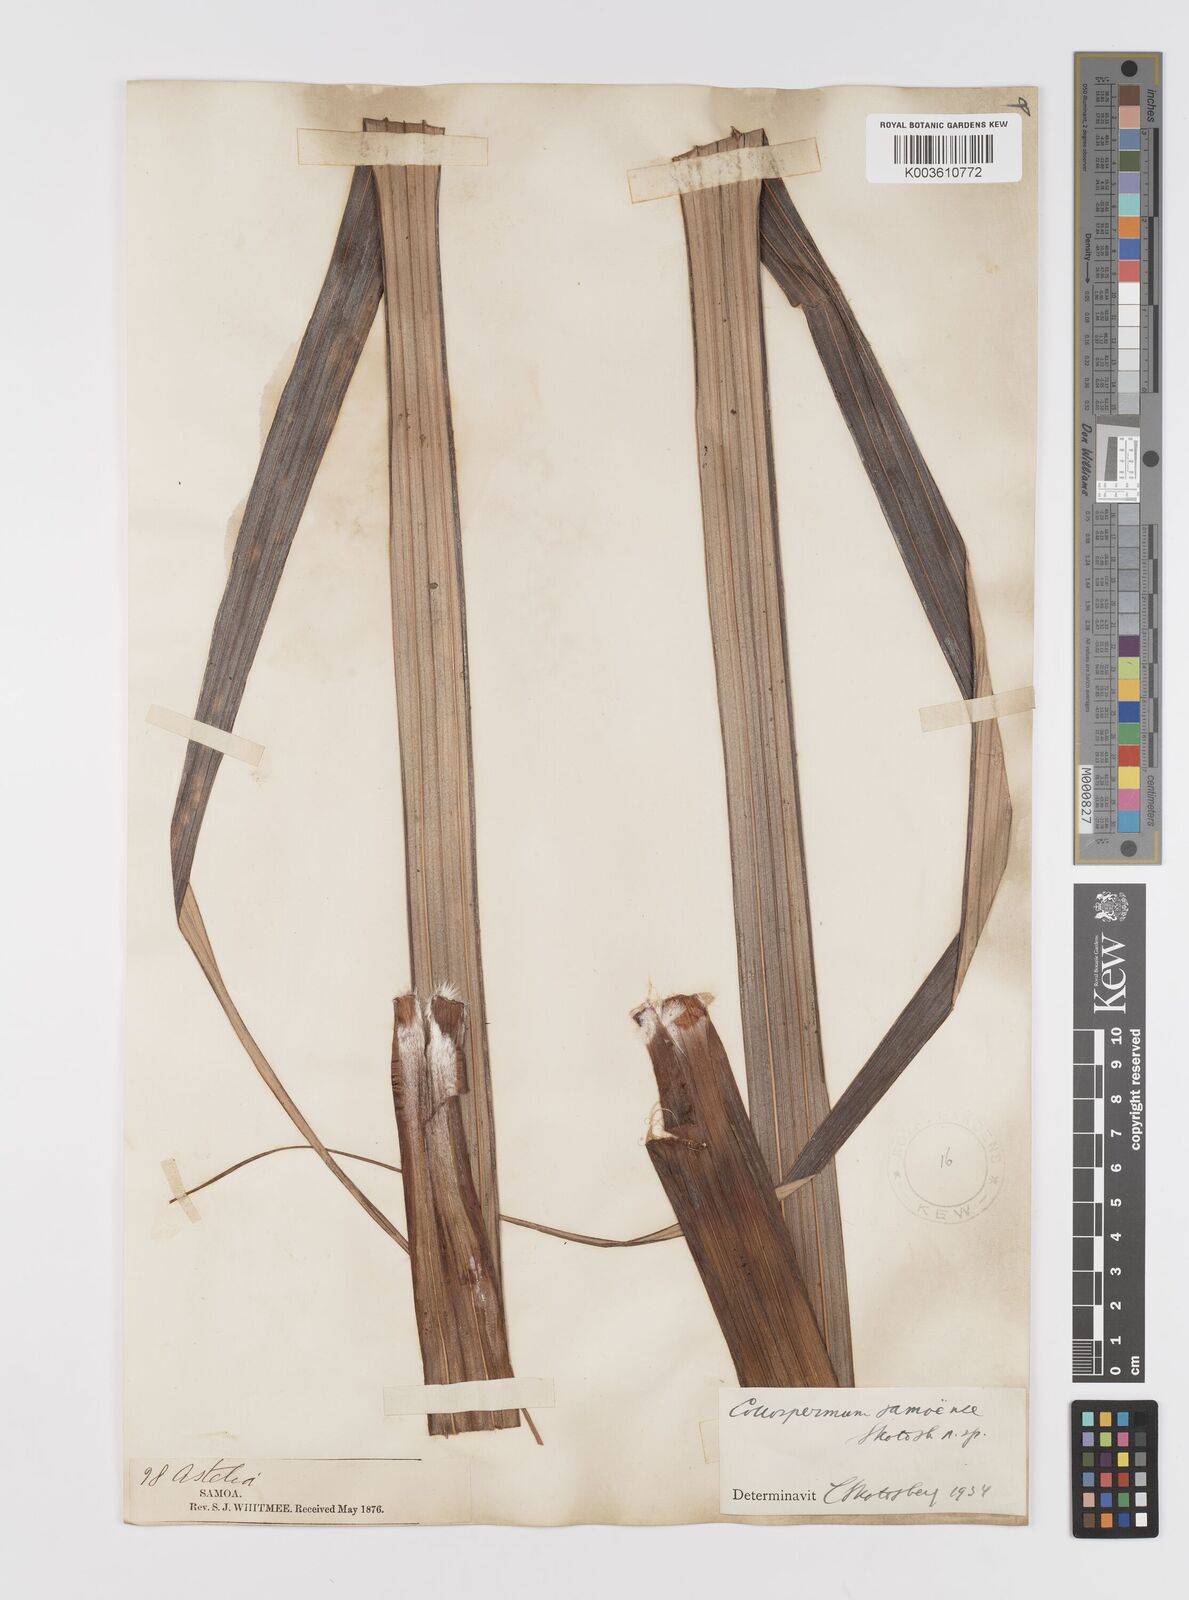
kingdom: Plantae
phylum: Tracheophyta
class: Liliopsida
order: Asparagales
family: Asteliaceae
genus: Astelia
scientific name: Astelia samoense
